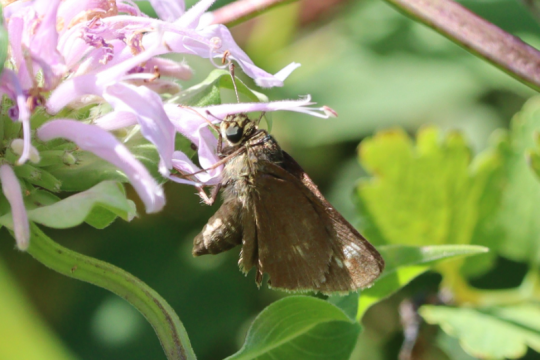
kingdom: Animalia
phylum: Arthropoda
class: Insecta
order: Lepidoptera
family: Hesperiidae
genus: Vernia
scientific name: Vernia verna
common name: Little Glassywing
